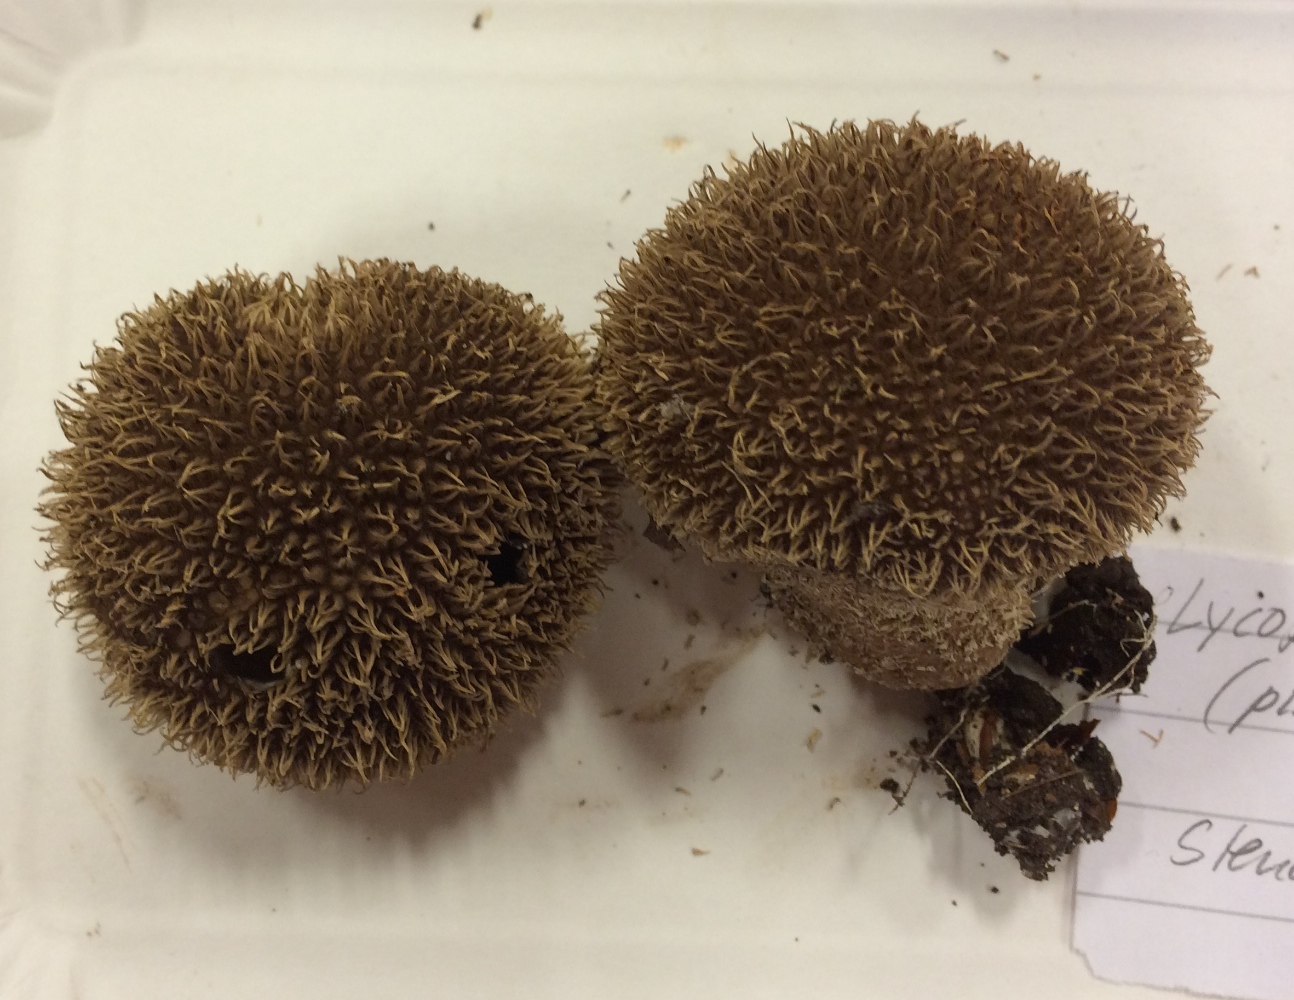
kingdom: Fungi
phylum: Basidiomycota
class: Agaricomycetes
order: Agaricales
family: Lycoperdaceae
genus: Lycoperdon
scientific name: Lycoperdon echinatum
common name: pindsvine-støvbold
